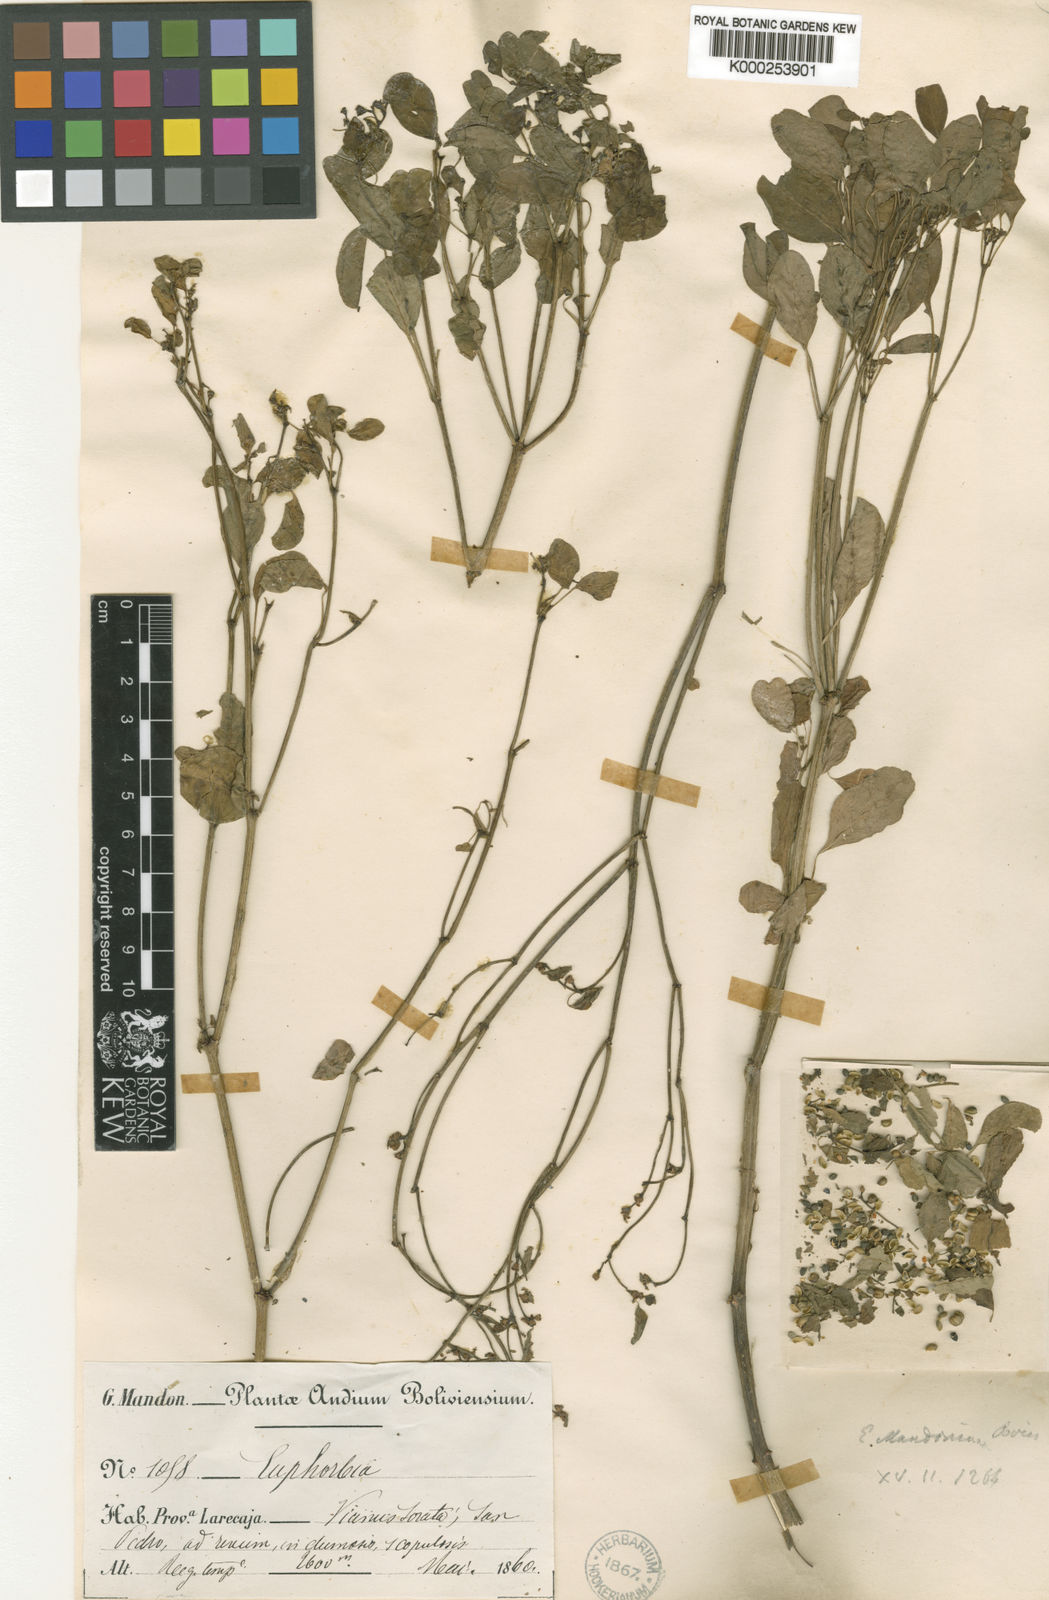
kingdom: Plantae
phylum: Tracheophyta
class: Magnoliopsida
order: Malpighiales
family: Euphorbiaceae
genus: Euphorbia
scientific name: Euphorbia viridis
